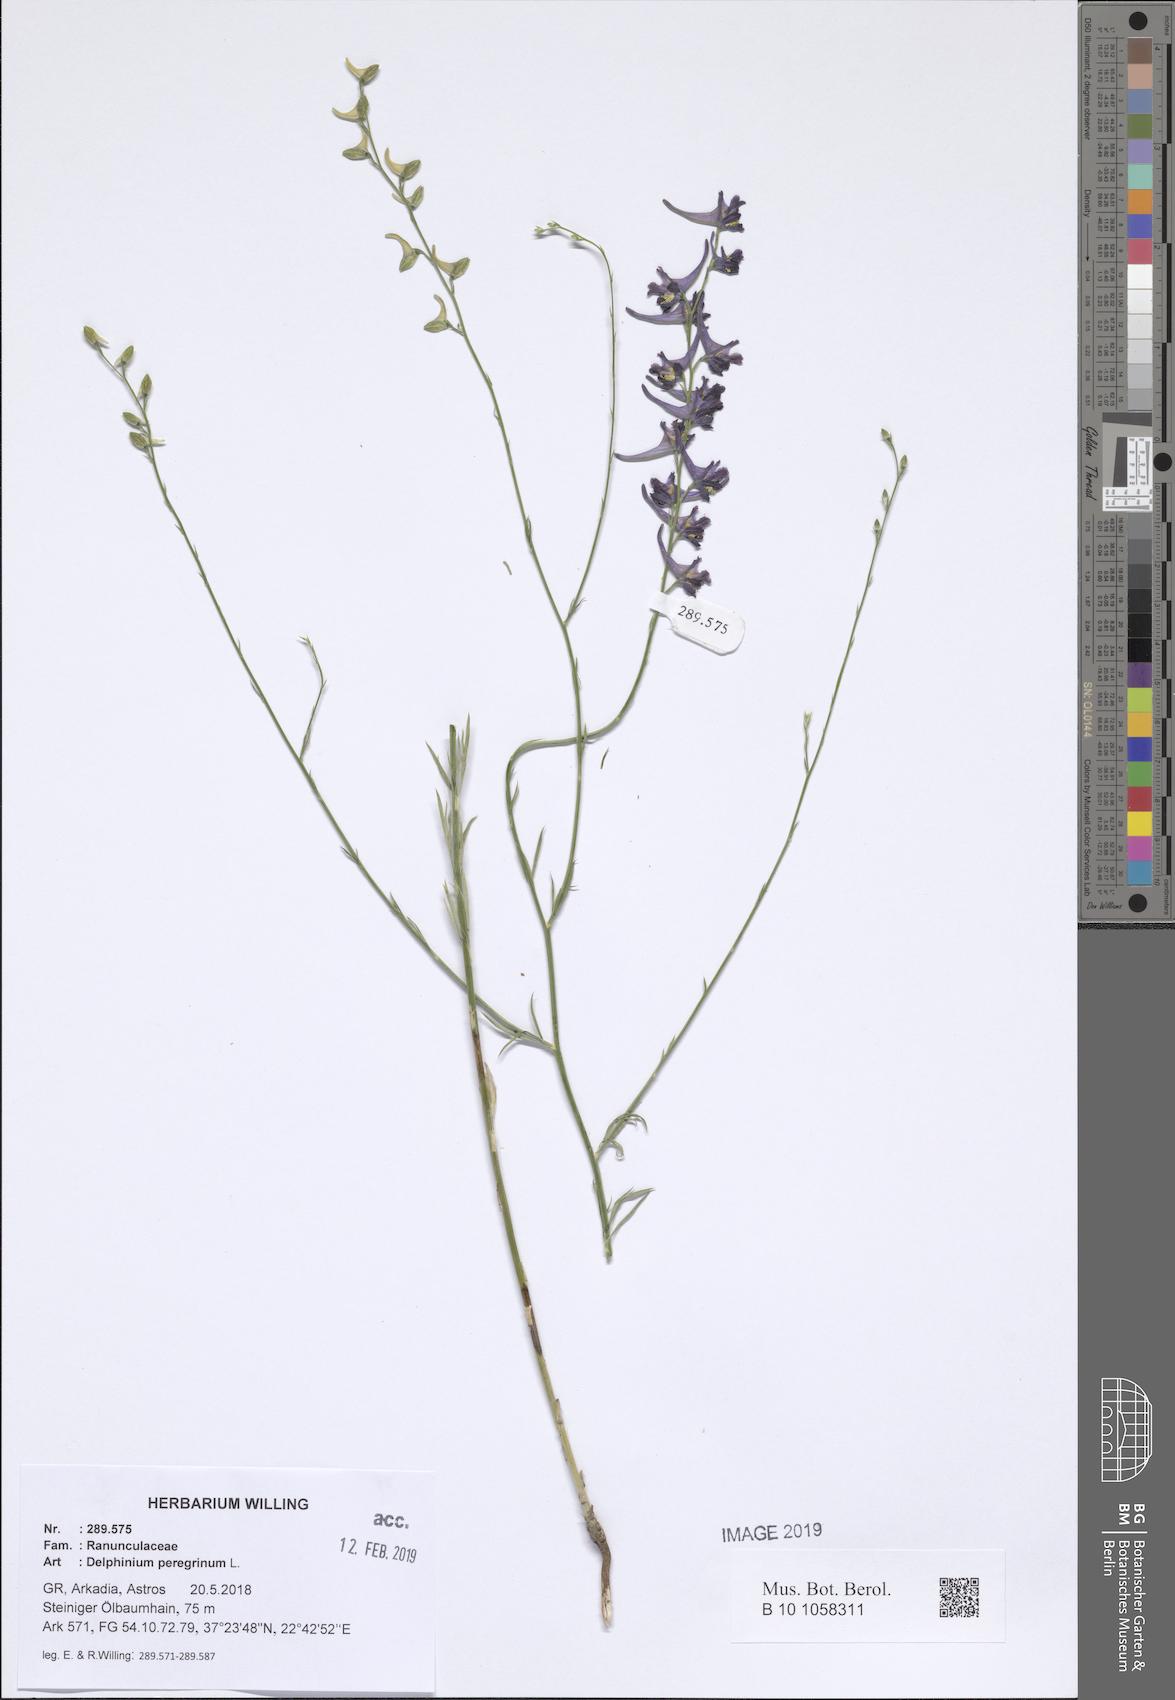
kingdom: Plantae
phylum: Tracheophyta
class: Magnoliopsida
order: Ranunculales
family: Ranunculaceae
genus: Delphinium
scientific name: Delphinium peregrinum
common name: Violet larkspur
